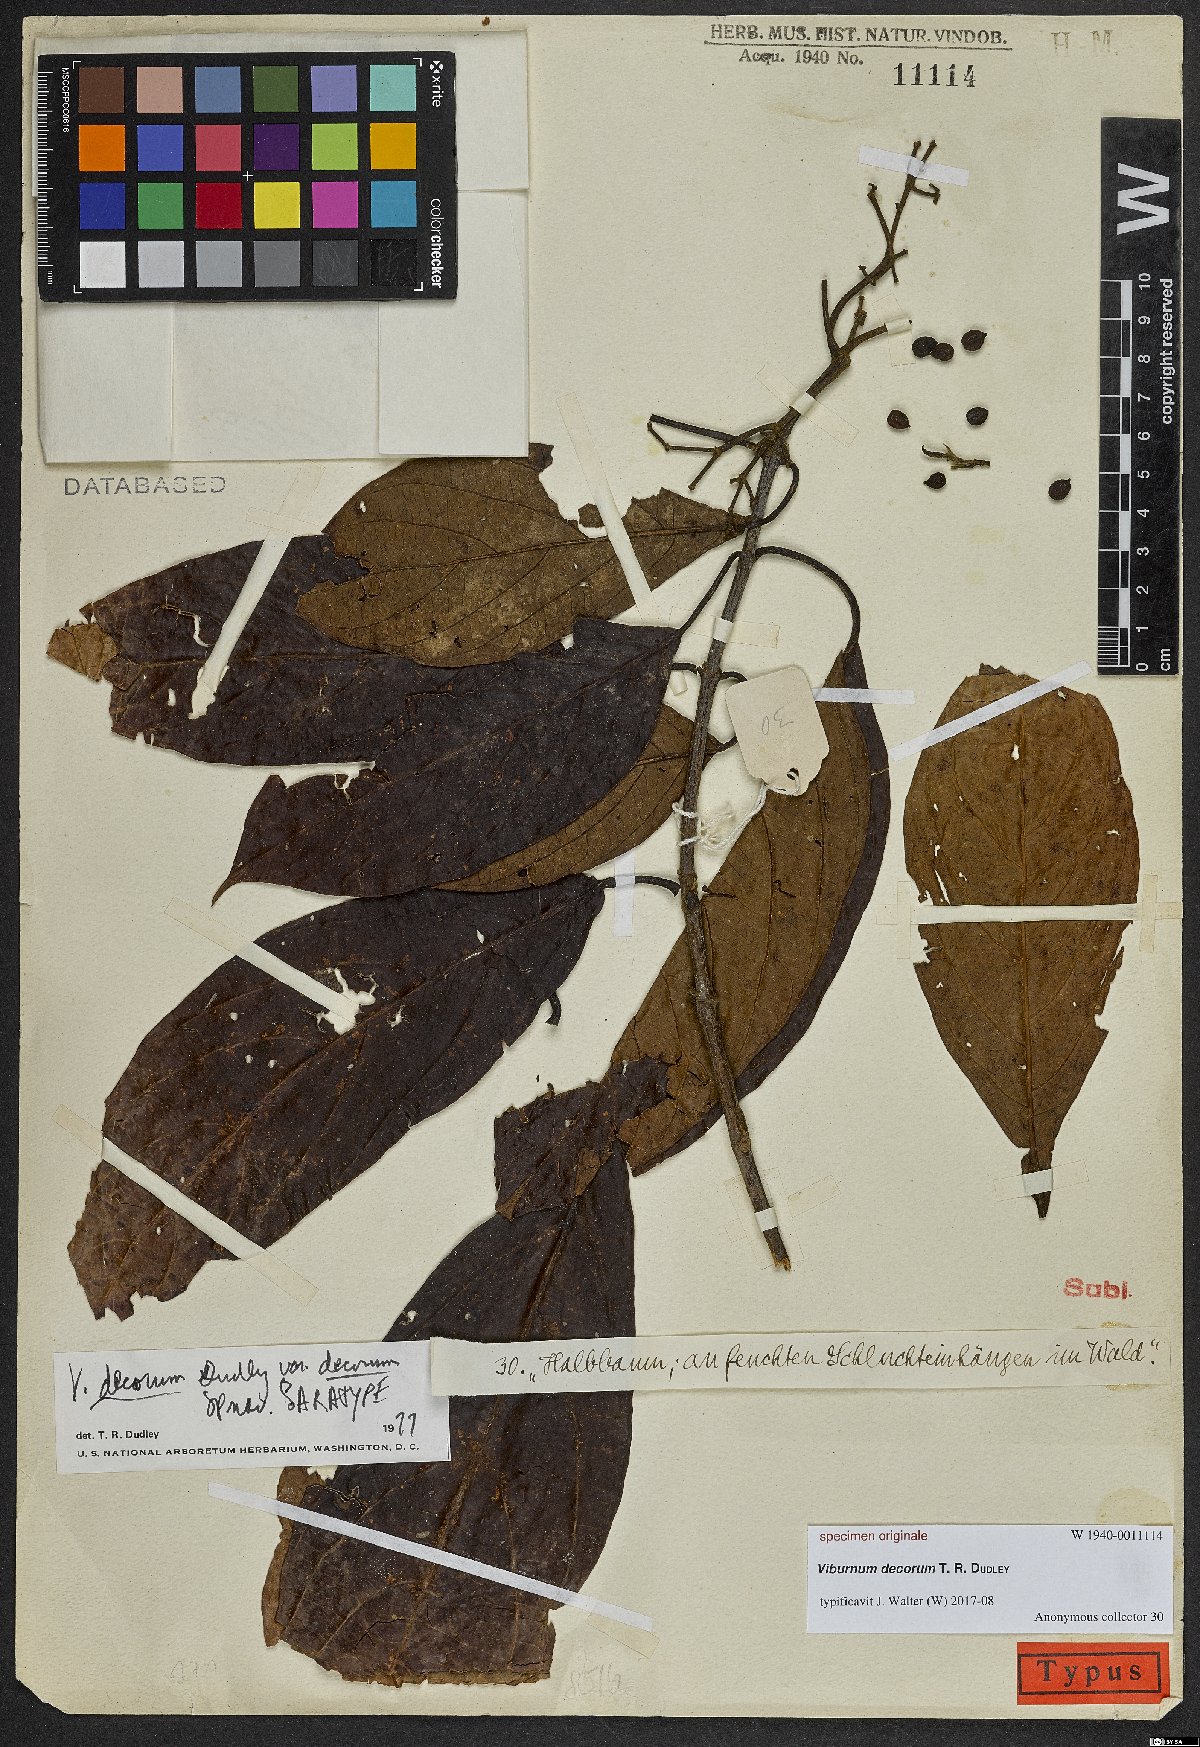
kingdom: Plantae
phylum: Tracheophyta
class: Magnoliopsida
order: Dipsacales
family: Viburnaceae
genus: Viburnum
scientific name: Viburnum
